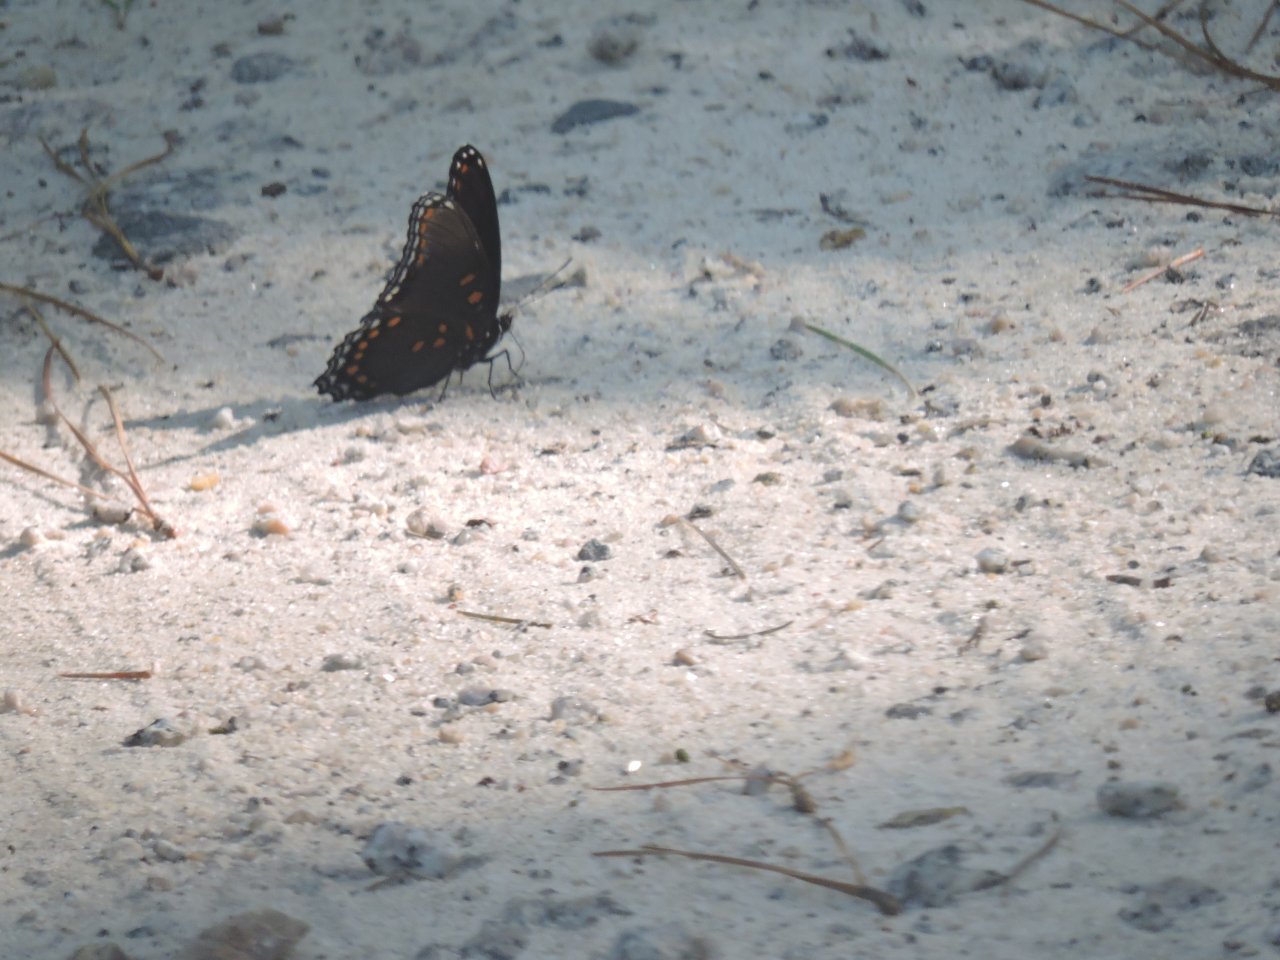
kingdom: Animalia
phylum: Arthropoda
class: Insecta
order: Lepidoptera
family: Nymphalidae
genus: Limenitis
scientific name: Limenitis arthemis
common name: Red-spotted Admiral
